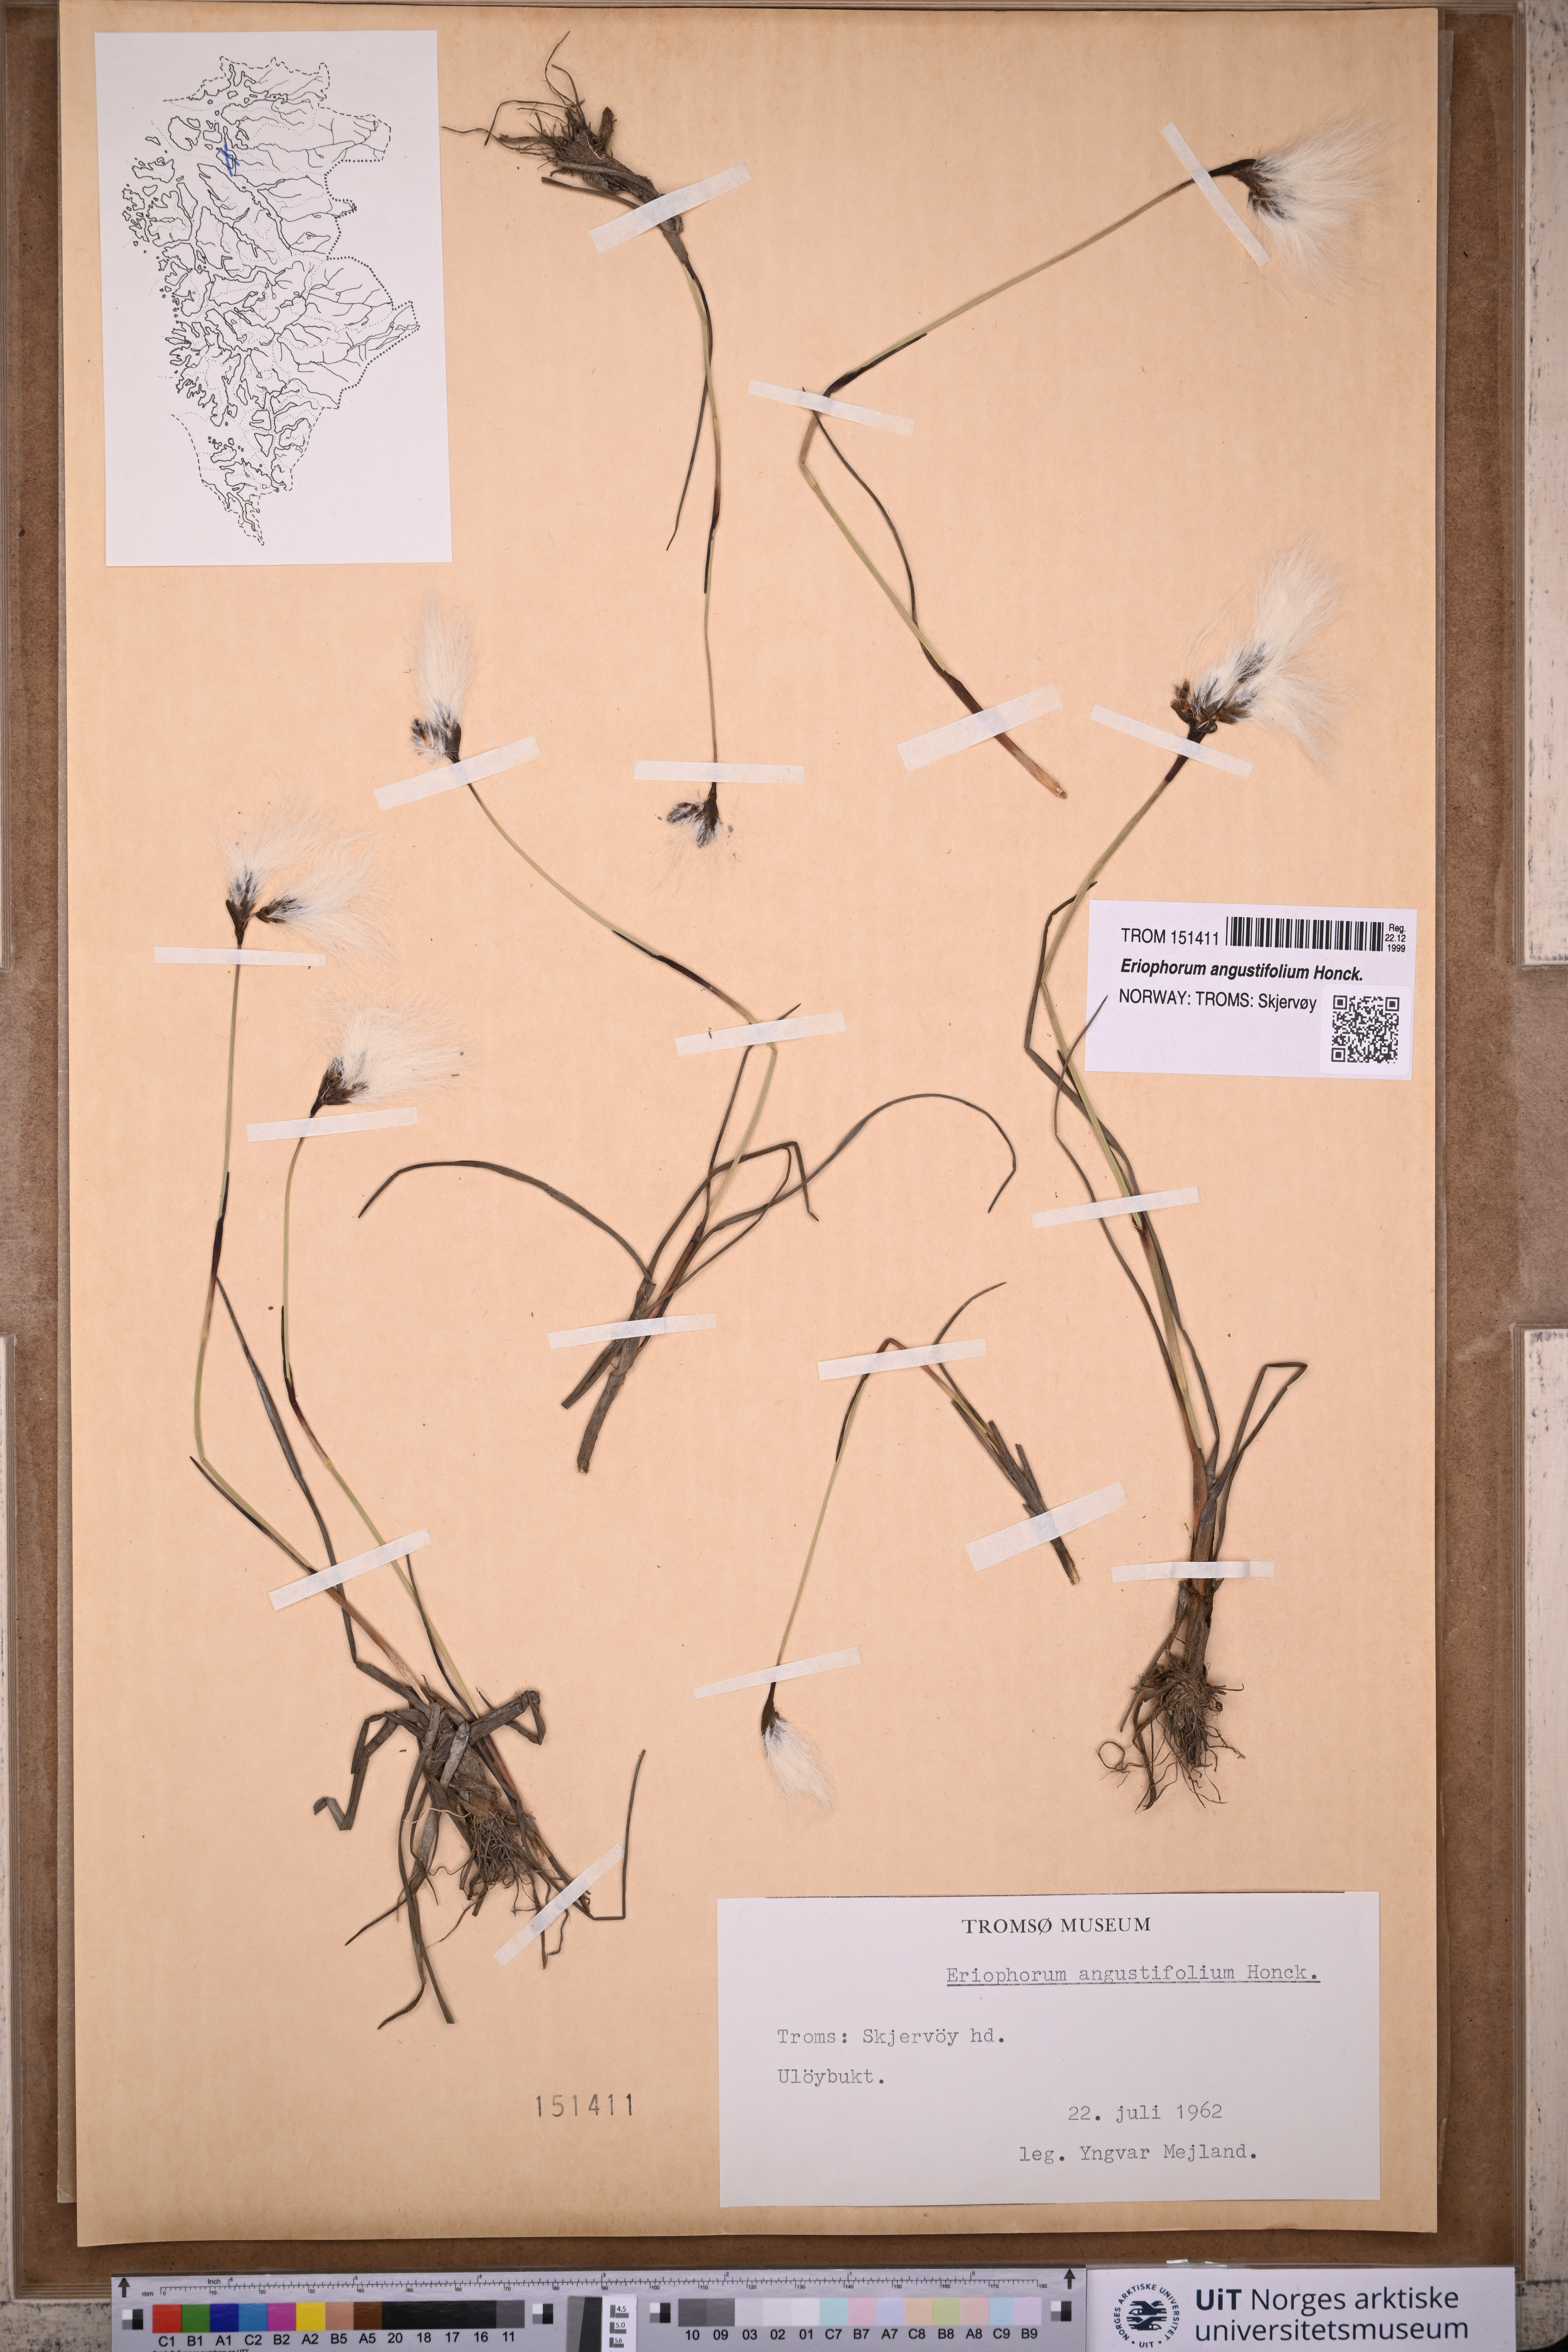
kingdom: Plantae
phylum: Tracheophyta
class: Liliopsida
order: Poales
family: Cyperaceae
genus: Eriophorum
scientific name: Eriophorum angustifolium
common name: Common cottongrass
